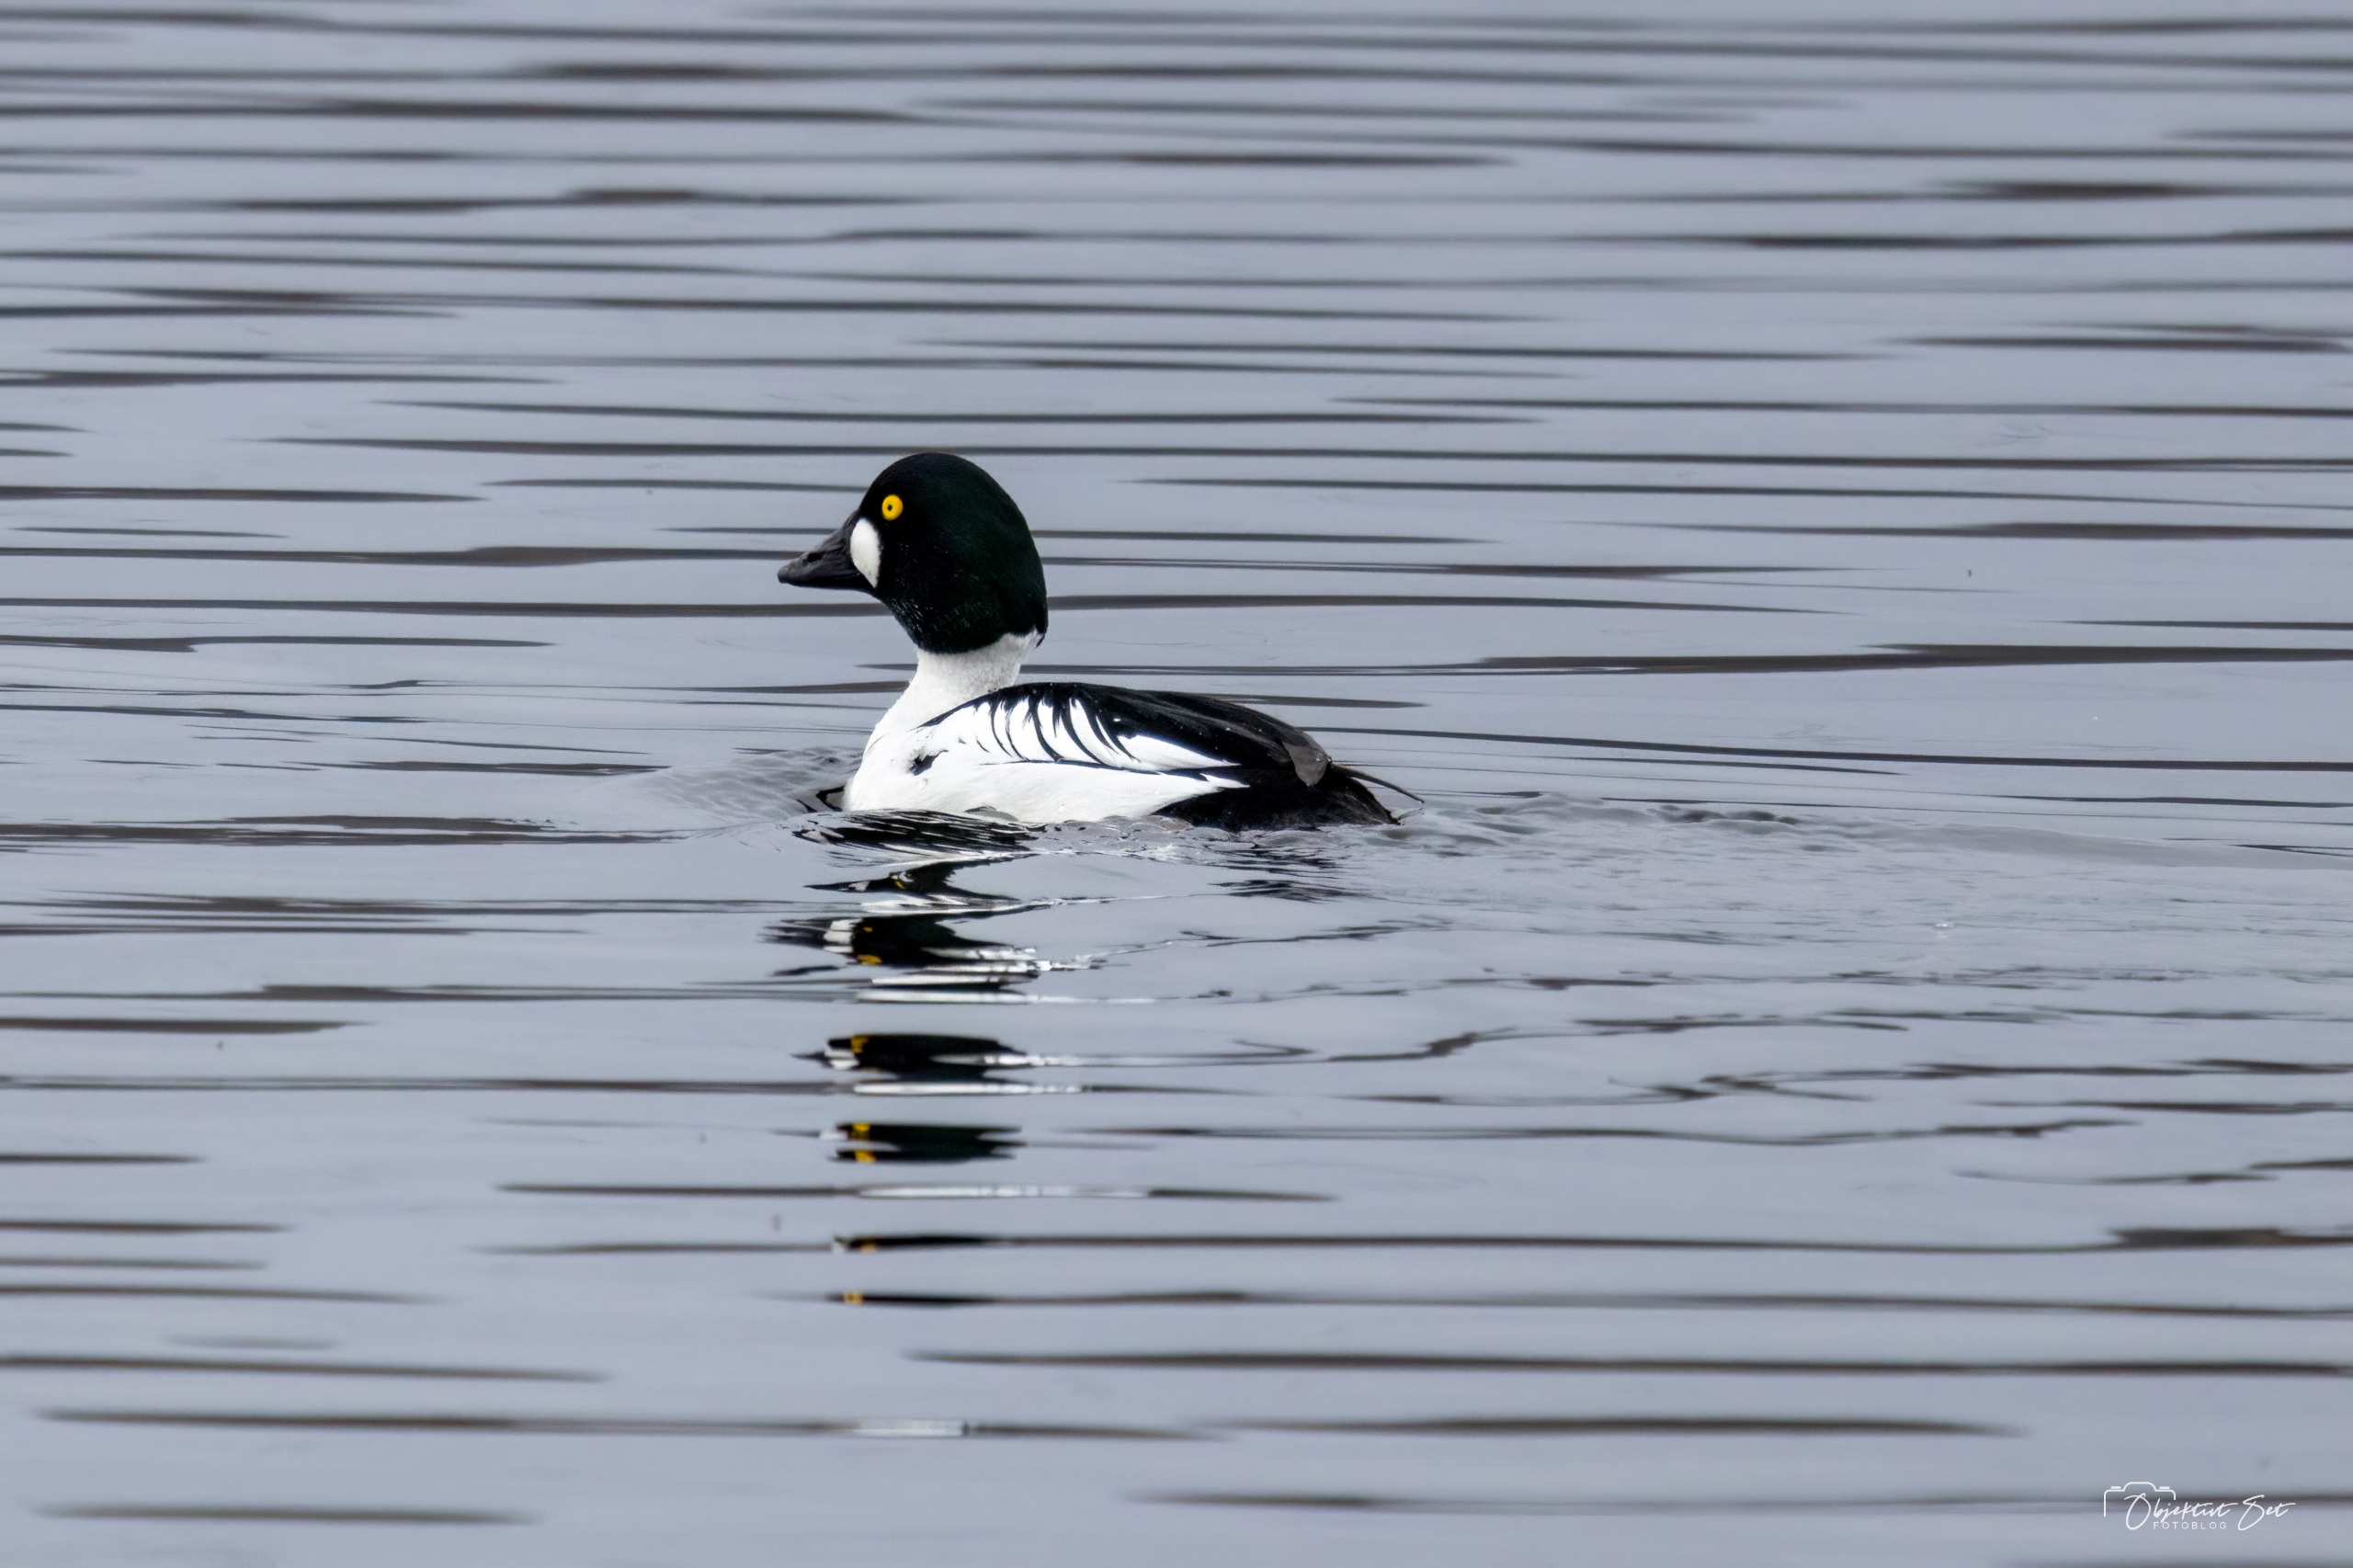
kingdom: Animalia
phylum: Chordata
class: Aves
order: Anseriformes
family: Anatidae
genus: Bucephala
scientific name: Bucephala clangula
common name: Hvinand
